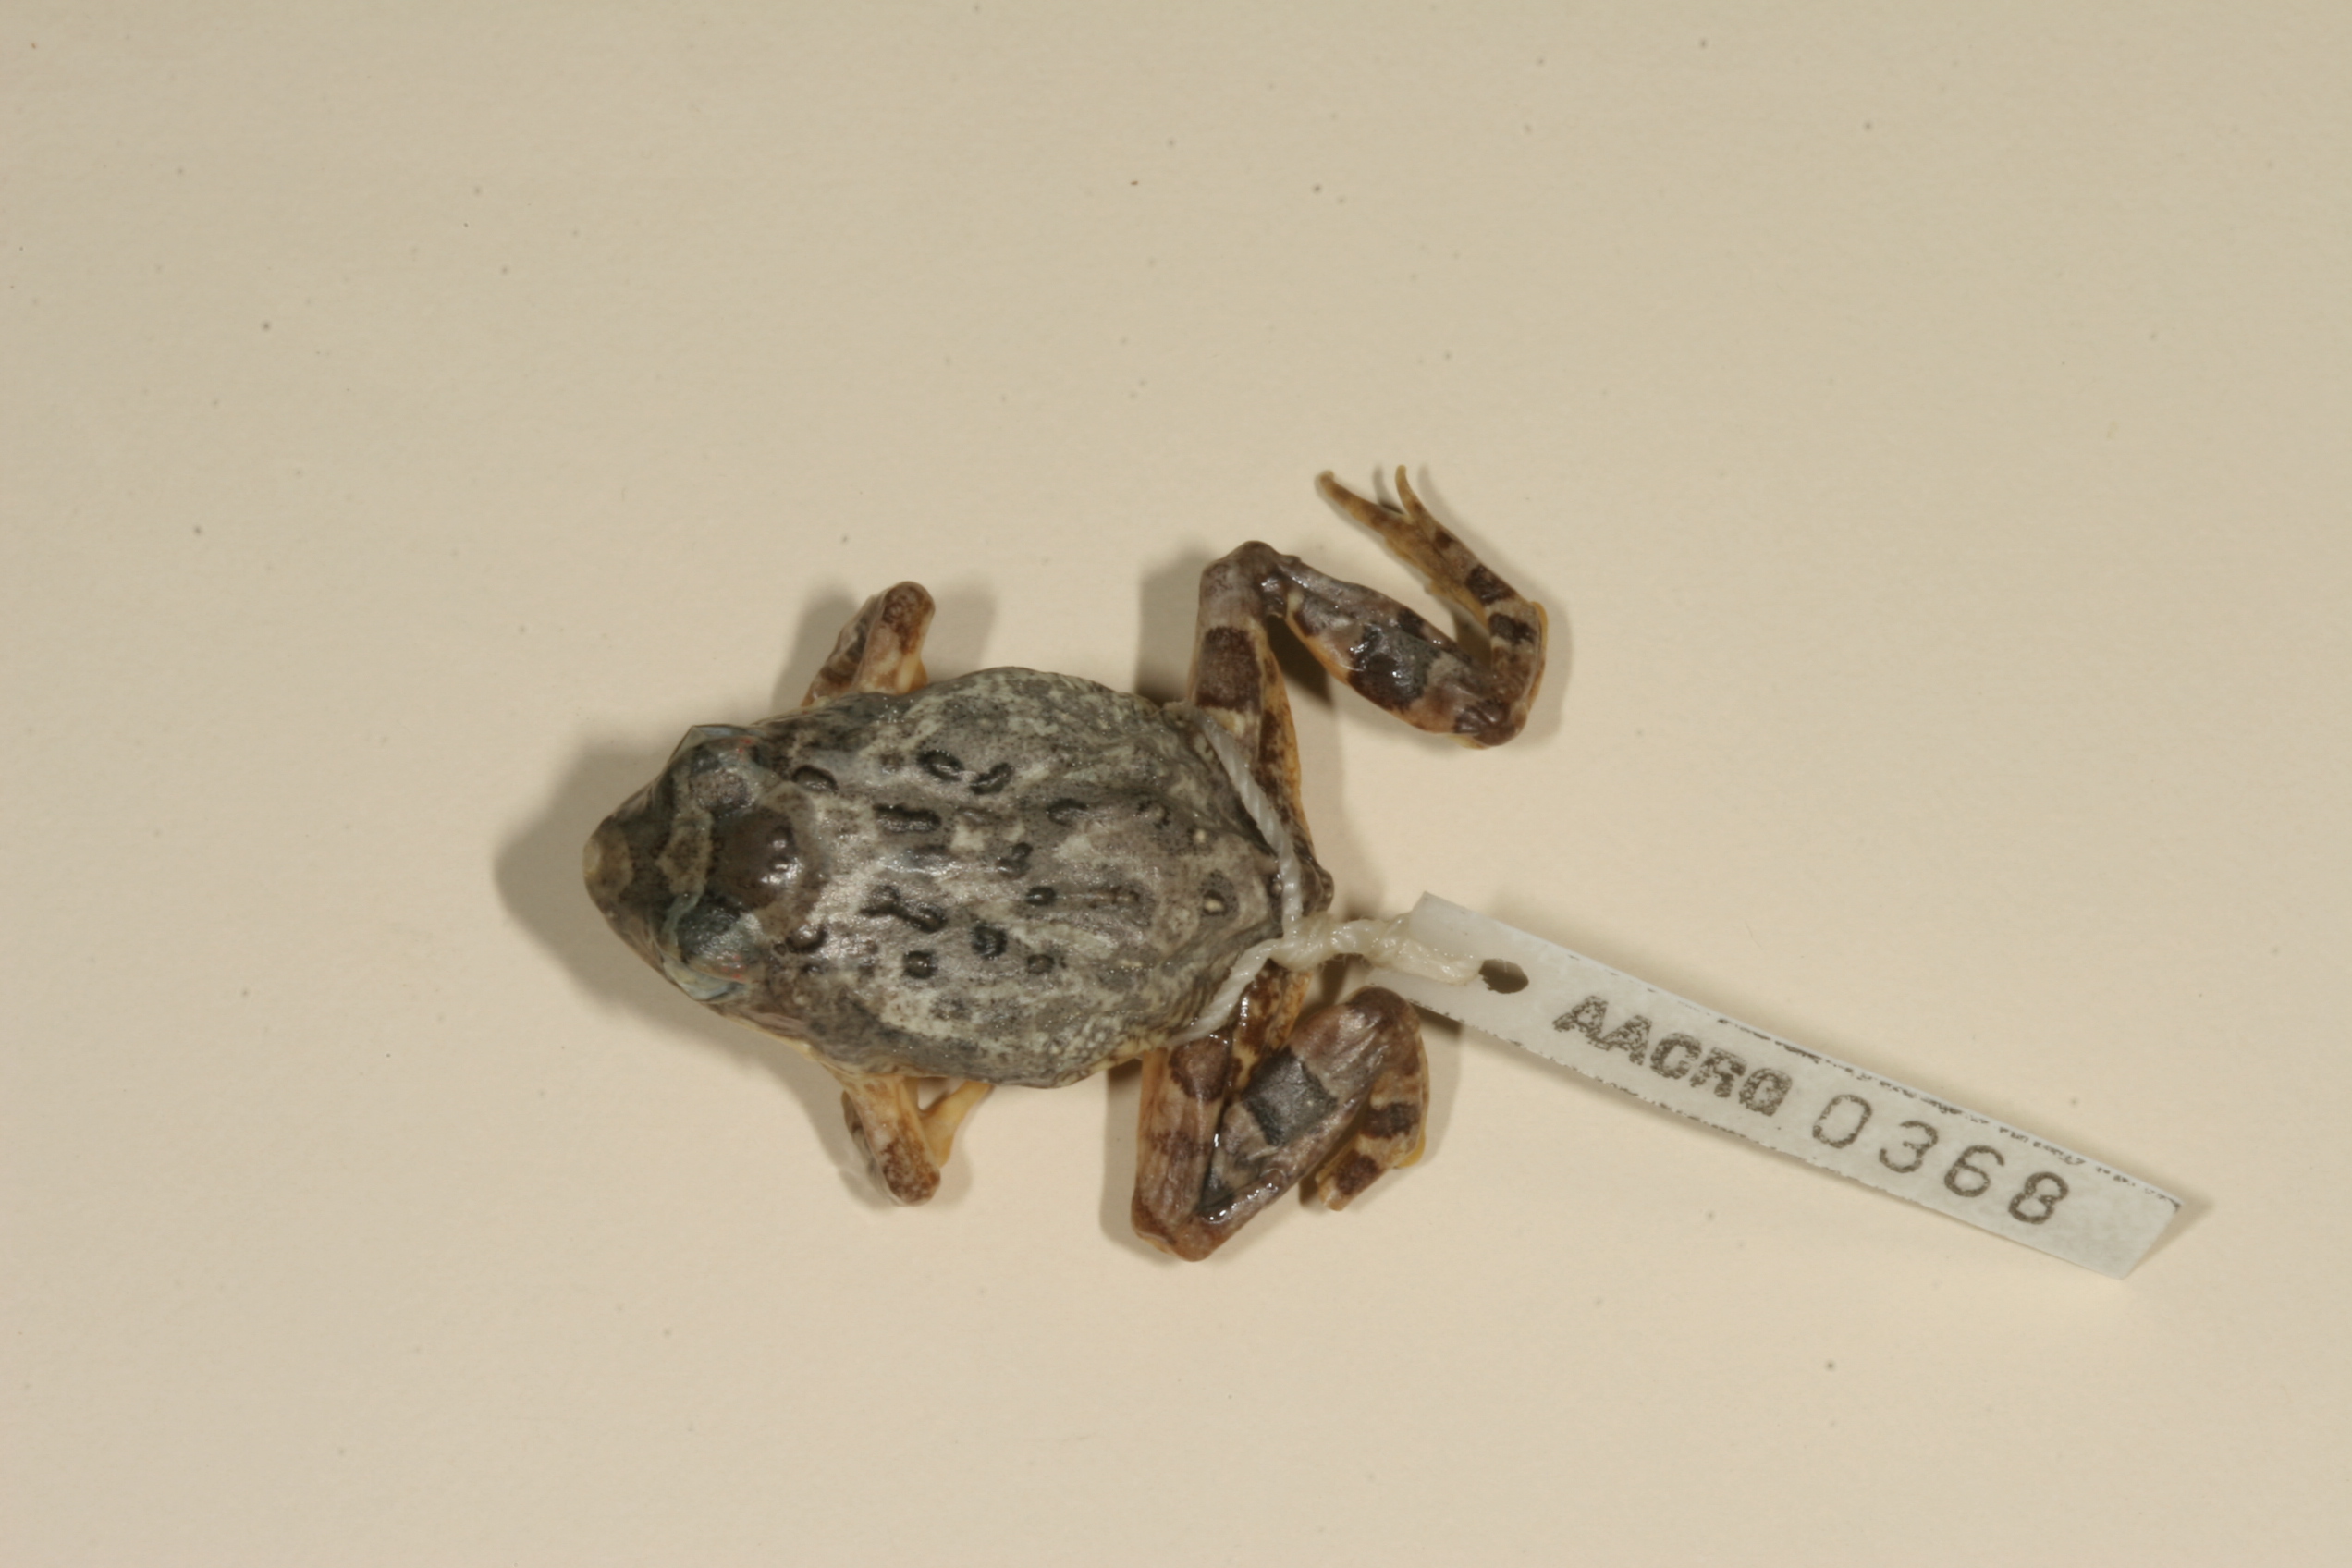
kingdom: Animalia
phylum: Chordata
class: Amphibia
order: Anura
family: Pyxicephalidae
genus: Tomopterna
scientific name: Tomopterna cryptotis
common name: Catequero bullfrog
